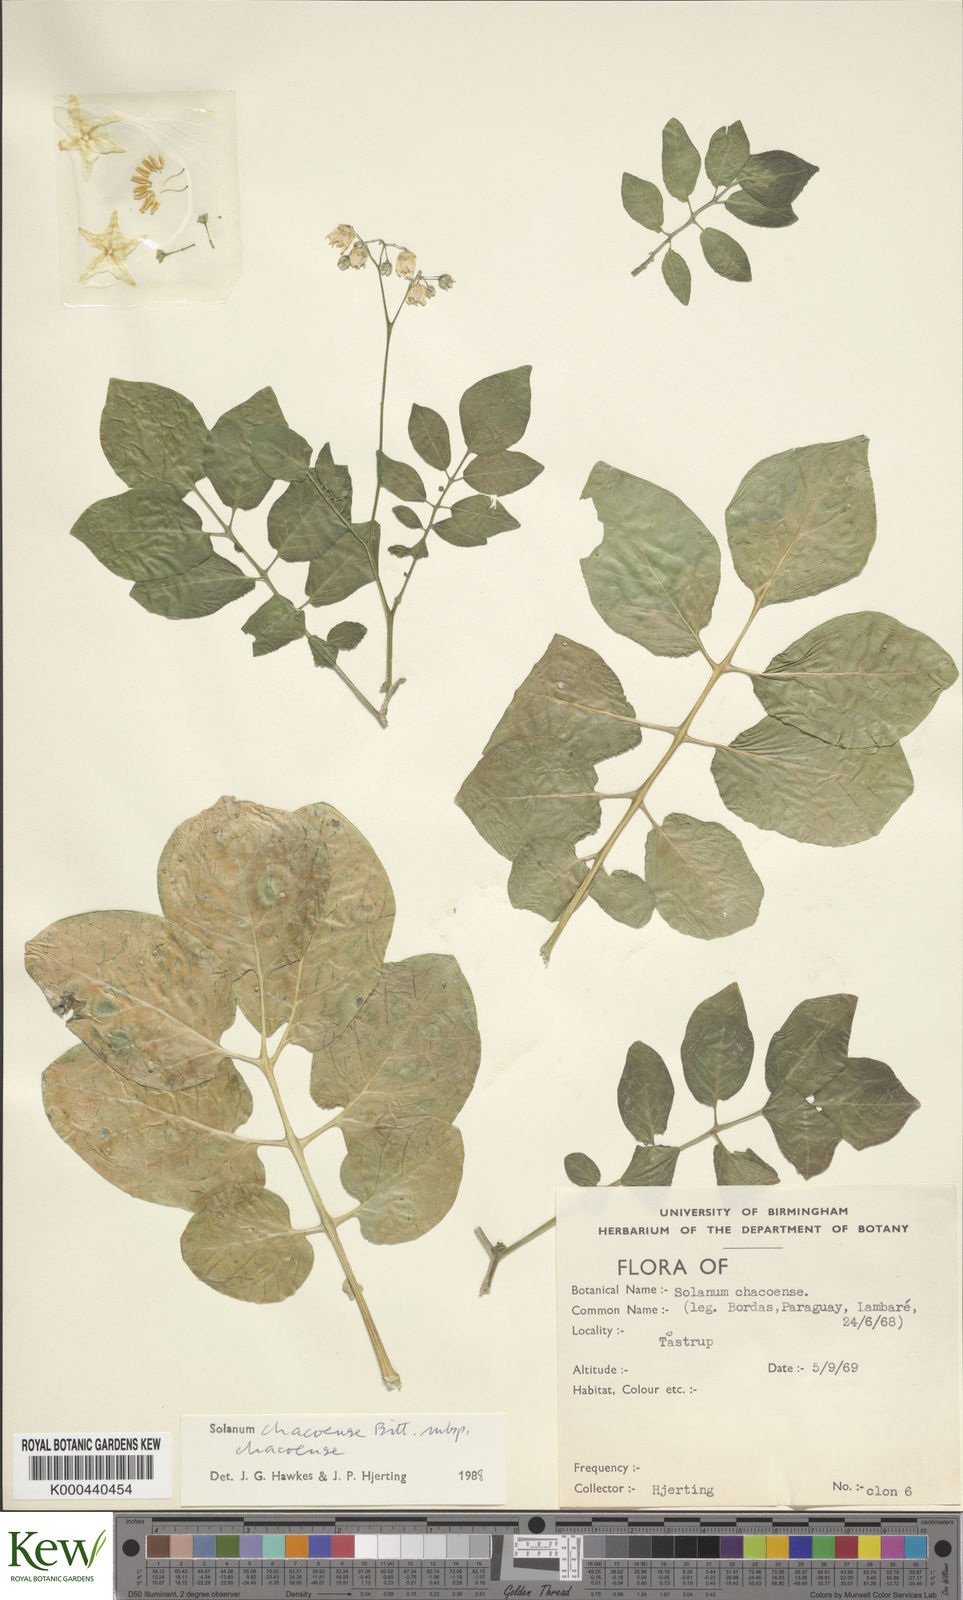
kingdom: Plantae
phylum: Tracheophyta
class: Magnoliopsida
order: Solanales
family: Solanaceae
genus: Solanum
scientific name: Solanum chacoense
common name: Chaco potato
